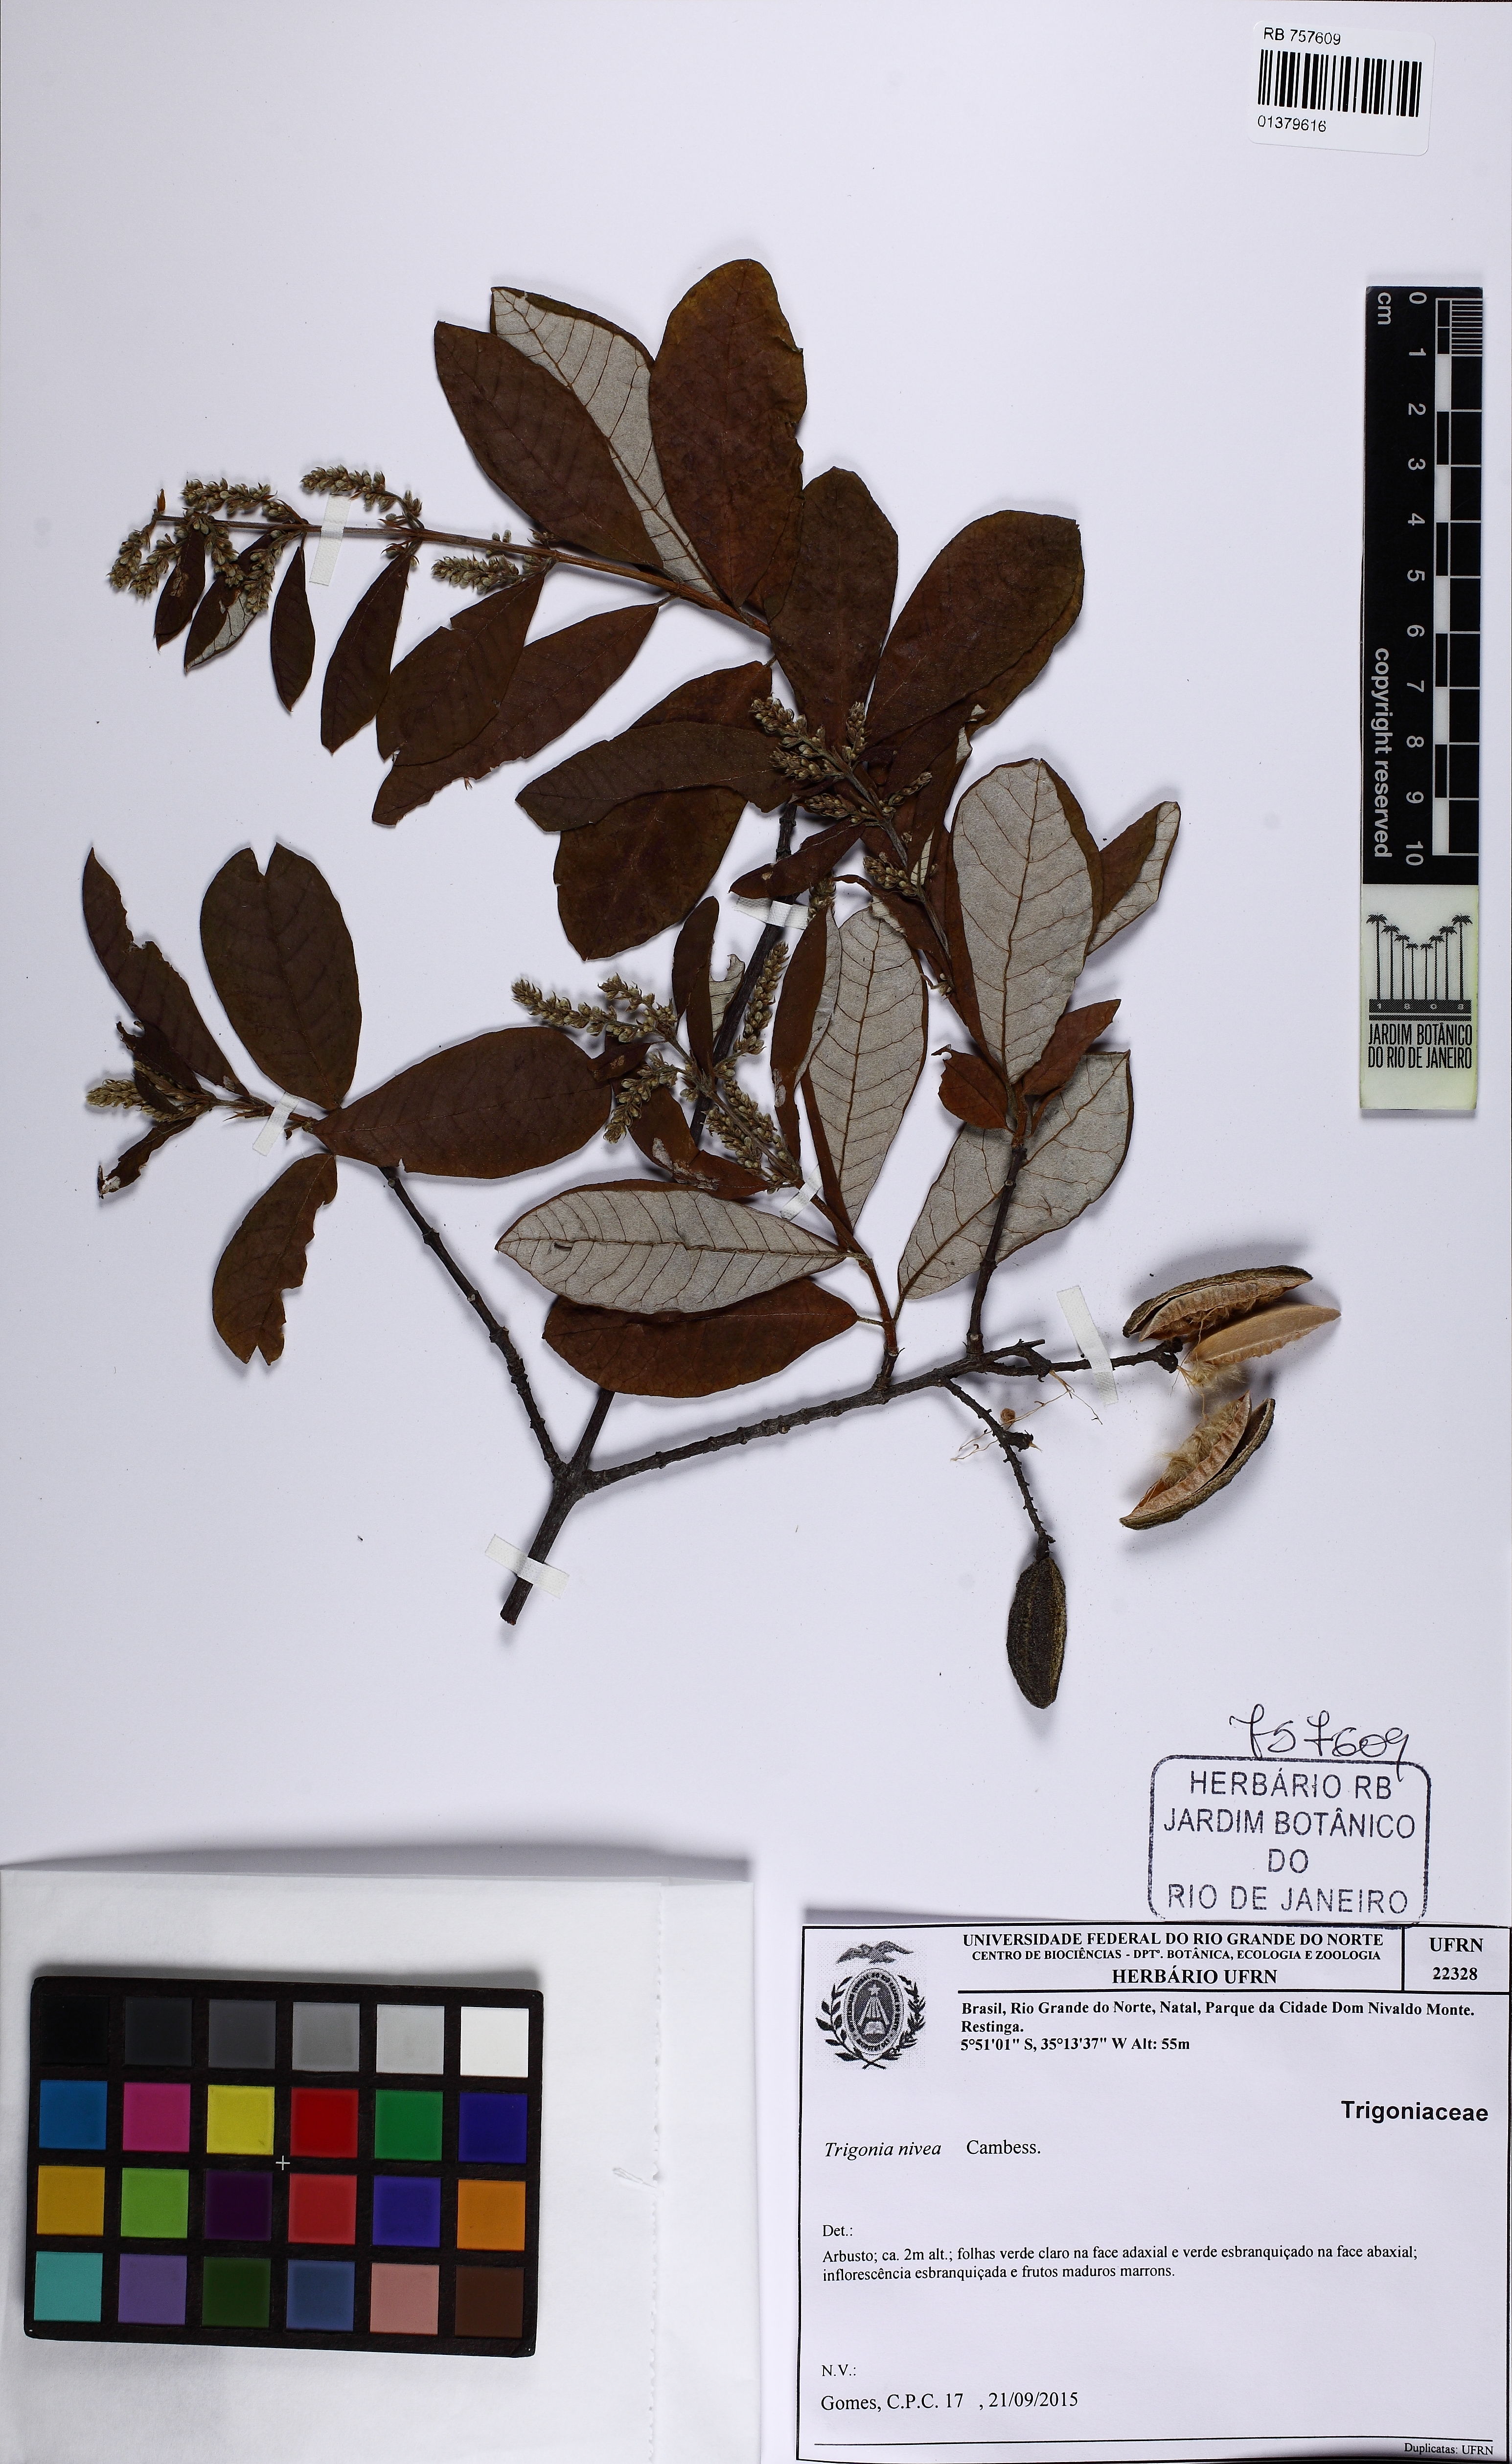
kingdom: Plantae
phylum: Tracheophyta
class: Magnoliopsida
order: Malpighiales
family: Trigoniaceae
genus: Trigonia
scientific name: Trigonia nivea
